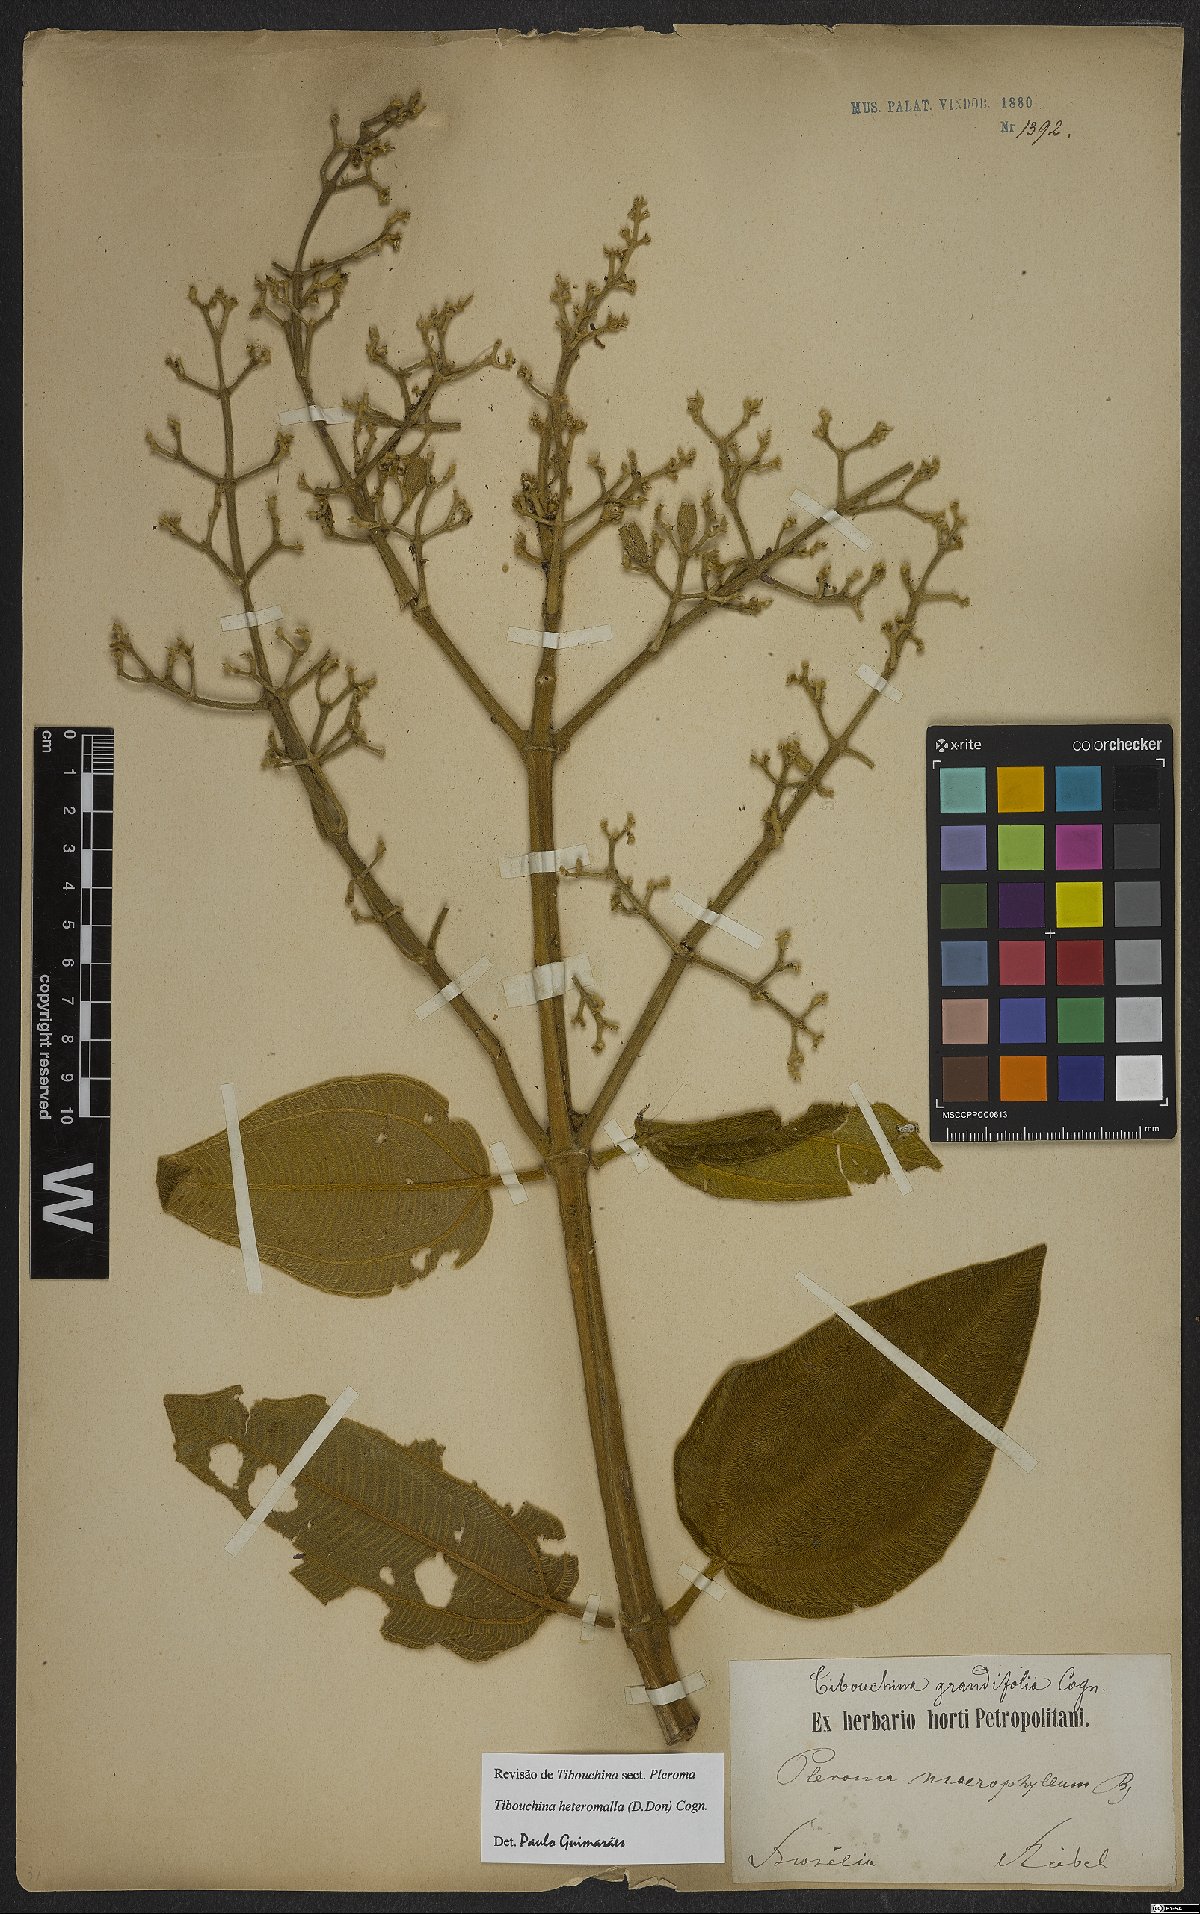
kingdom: Plantae
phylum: Tracheophyta
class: Magnoliopsida
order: Myrtales
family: Melastomataceae
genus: Pleroma
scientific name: Pleroma heteromallum
